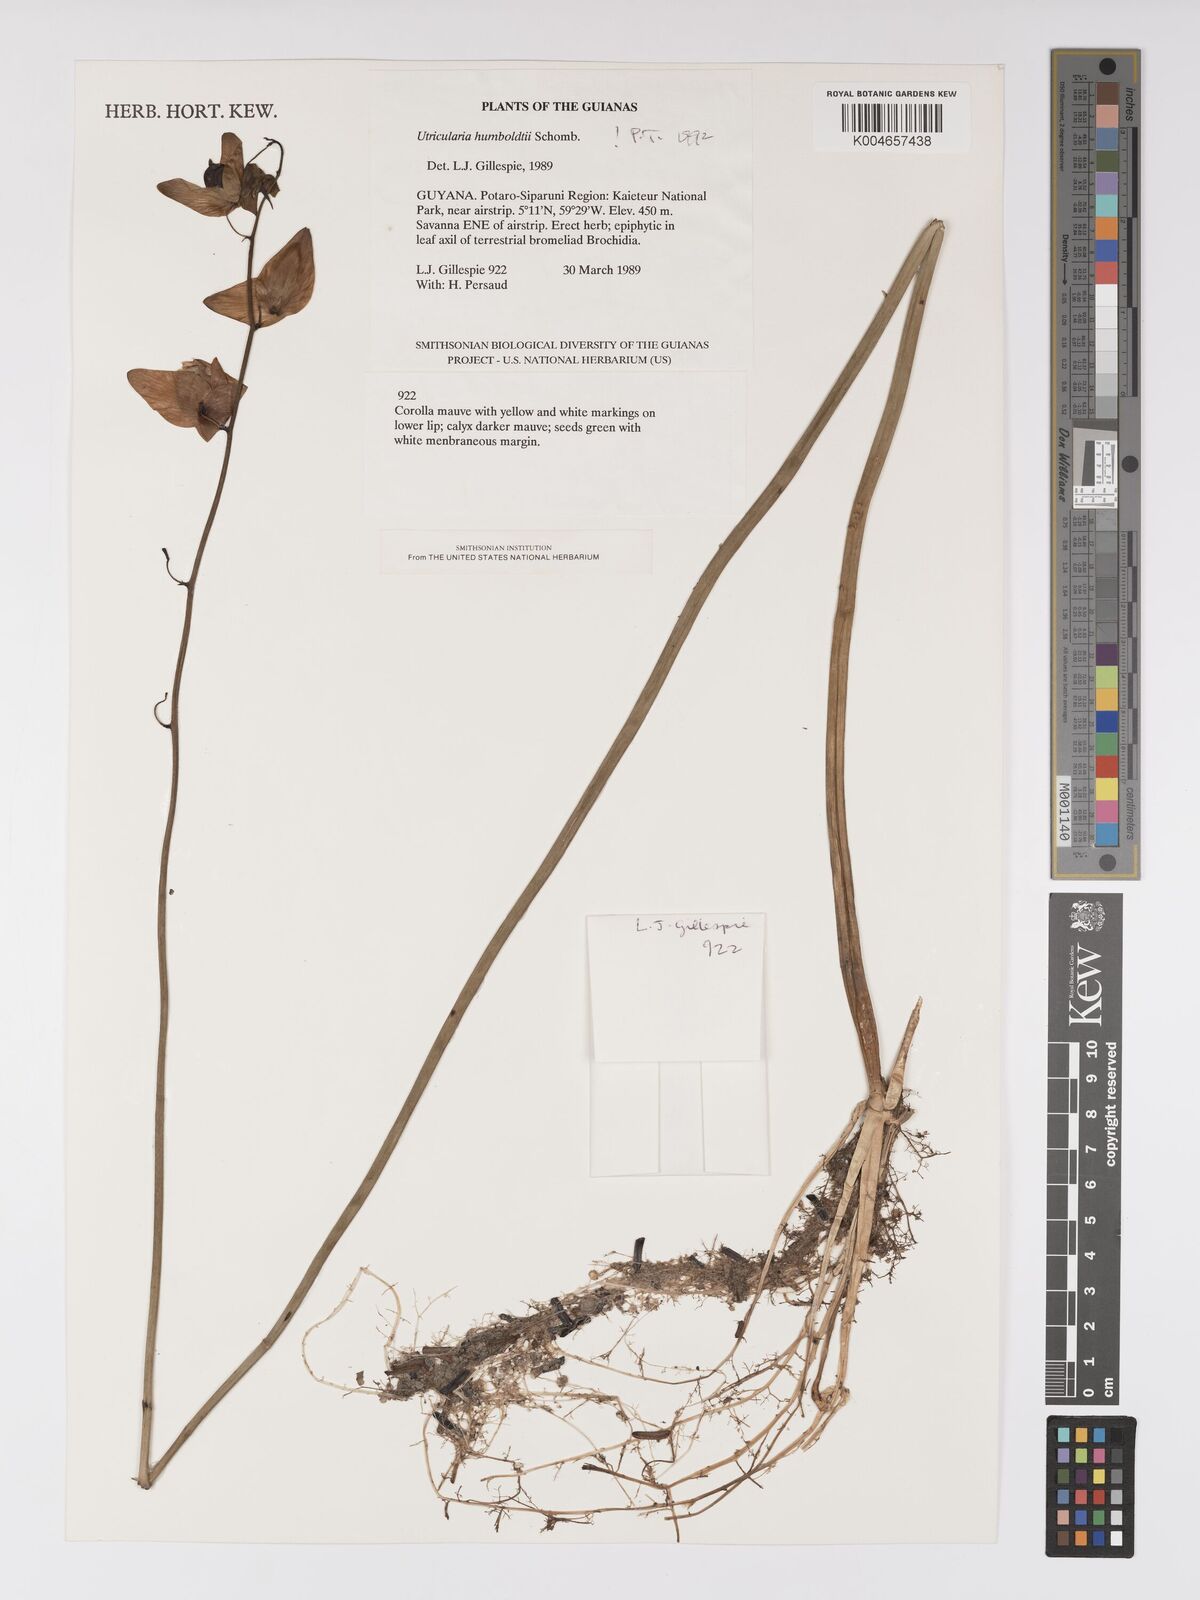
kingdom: Plantae
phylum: Tracheophyta
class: Magnoliopsida
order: Lamiales
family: Lentibulariaceae
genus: Utricularia
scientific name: Utricularia humboldtii
